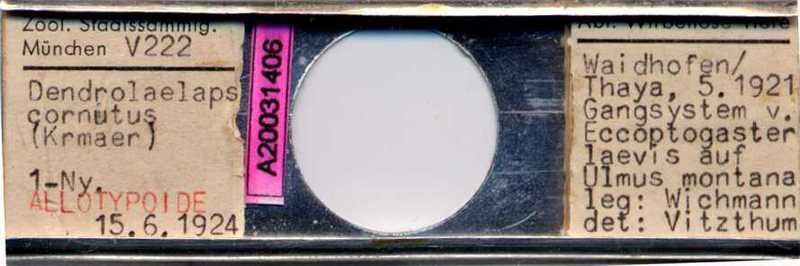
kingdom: Animalia
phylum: Arthropoda
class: Arachnida
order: Mesostigmata
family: Digamasellidae
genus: Dendrolaelaps
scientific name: Dendrolaelaps
